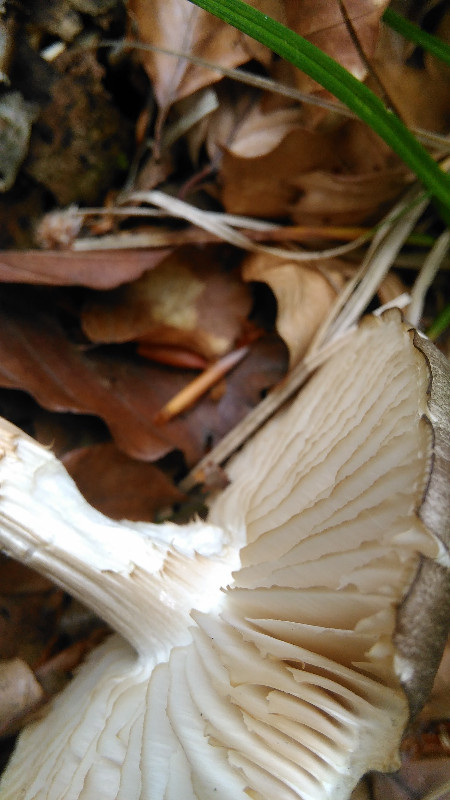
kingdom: Fungi
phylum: Basidiomycota
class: Agaricomycetes
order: Agaricales
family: Tricholomataceae
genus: Megacollybia
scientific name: Megacollybia platyphylla
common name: bredbladet væbnerhat
